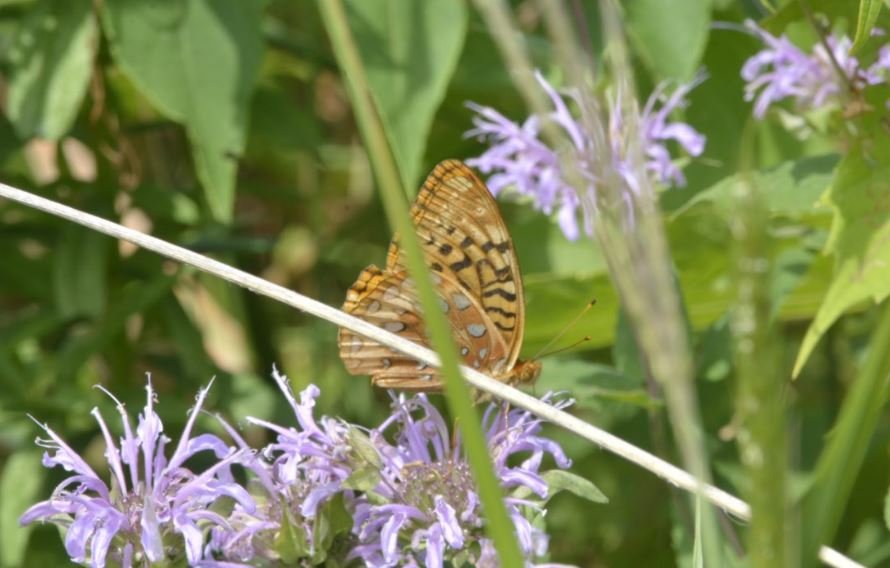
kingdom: Animalia
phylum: Arthropoda
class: Insecta
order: Lepidoptera
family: Nymphalidae
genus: Speyeria
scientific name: Speyeria cybele
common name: Great Spangled Fritillary
